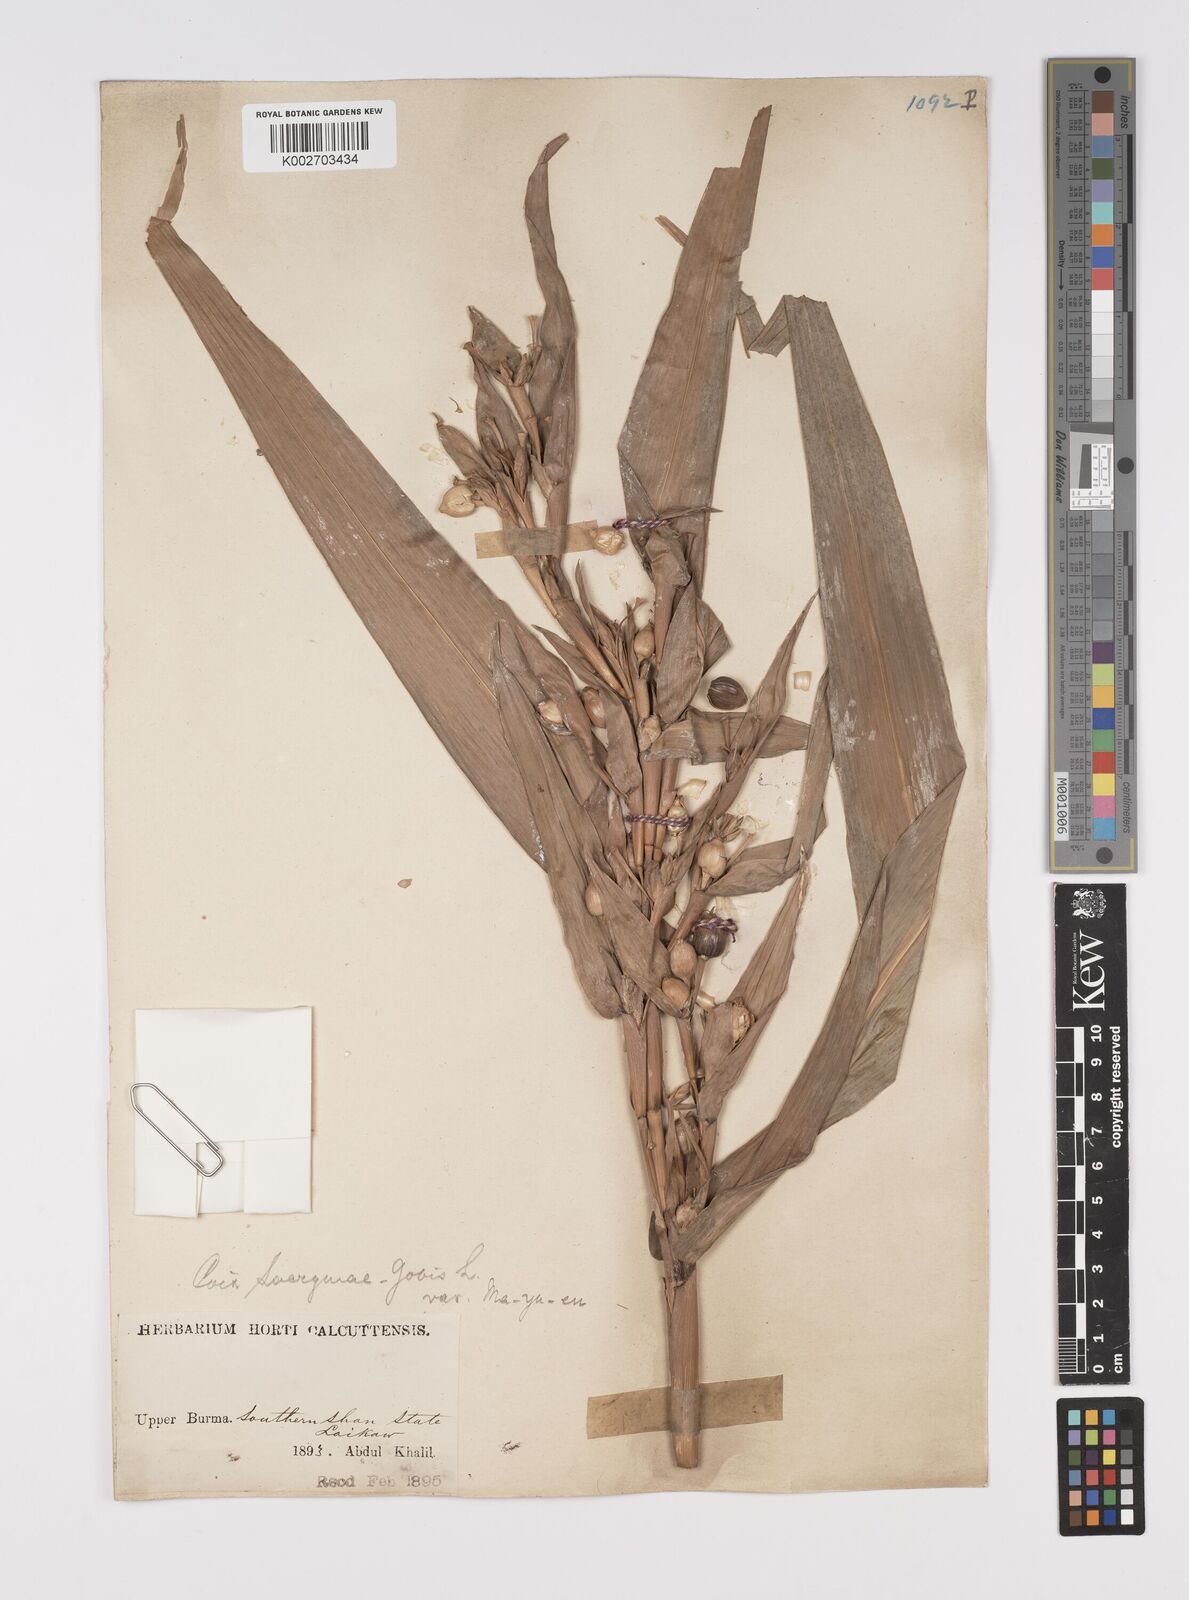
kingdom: Plantae
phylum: Tracheophyta
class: Liliopsida
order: Poales
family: Poaceae
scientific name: Poaceae
